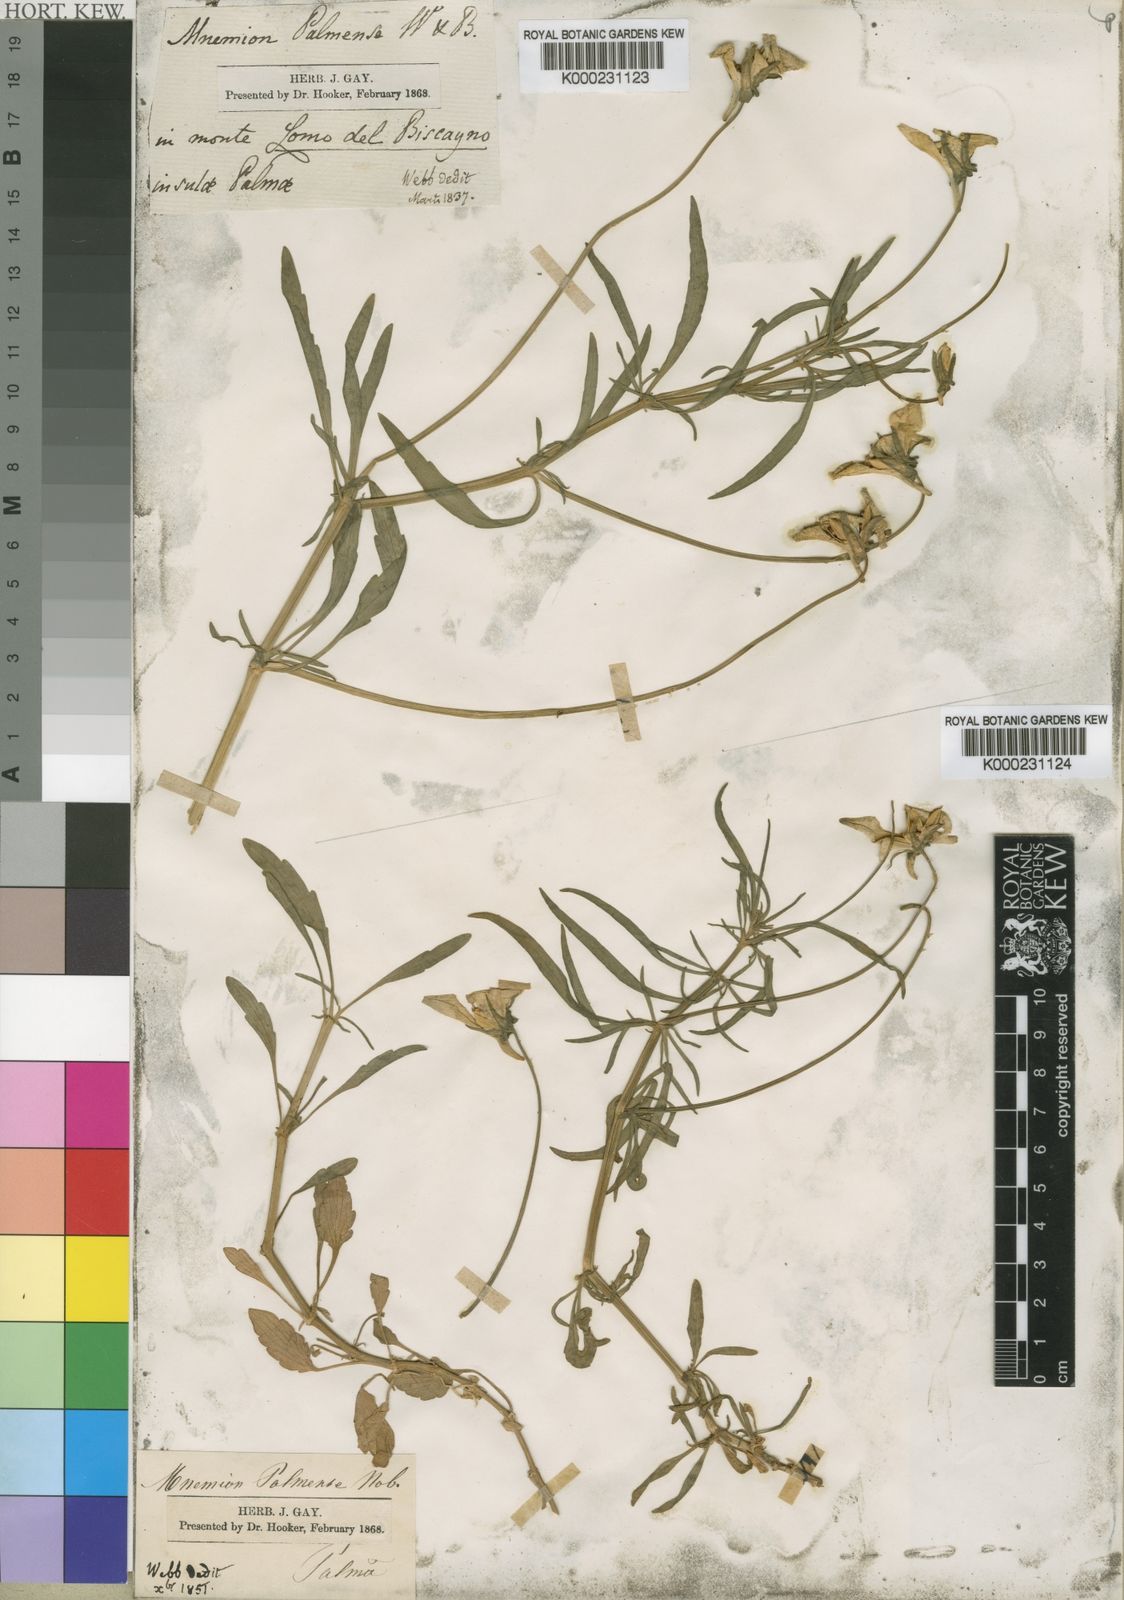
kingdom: Plantae
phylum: Tracheophyta
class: Magnoliopsida
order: Malpighiales
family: Violaceae
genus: Viola
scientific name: Viola palmensis
